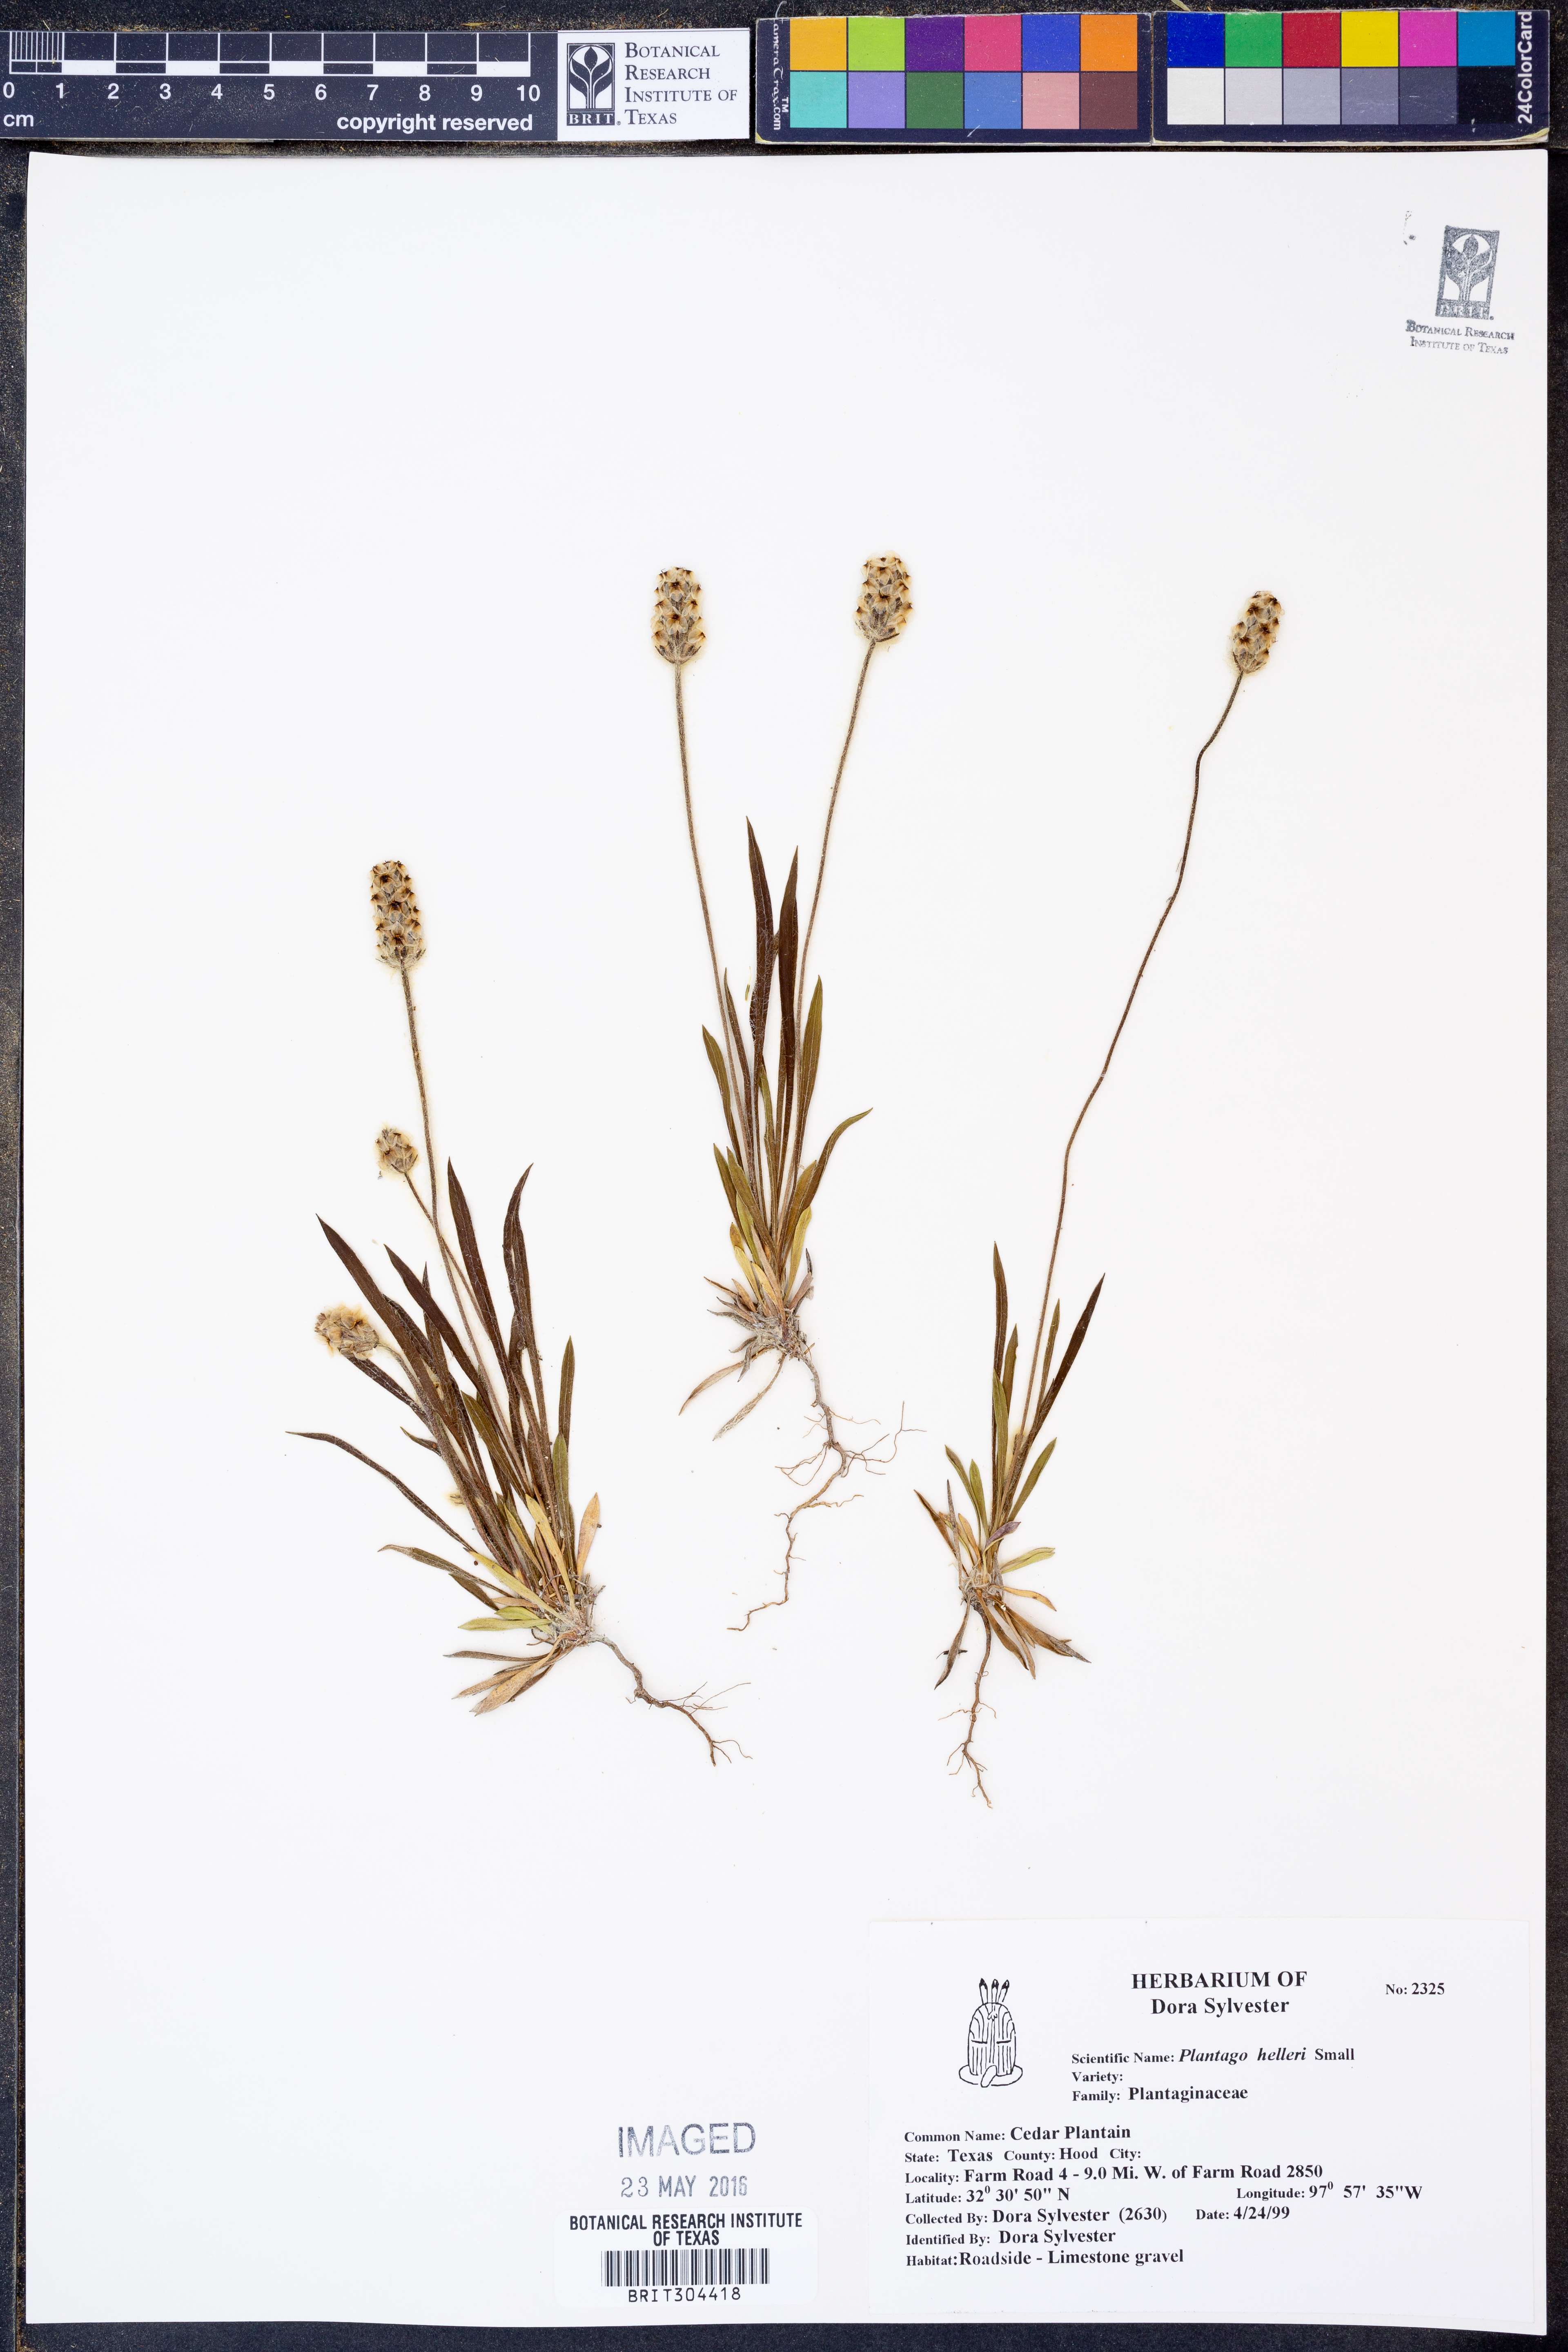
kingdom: Plantae
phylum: Tracheophyta
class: Magnoliopsida
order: Lamiales
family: Plantaginaceae
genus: Plantago
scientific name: Plantago helleri
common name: Heller's plantain
